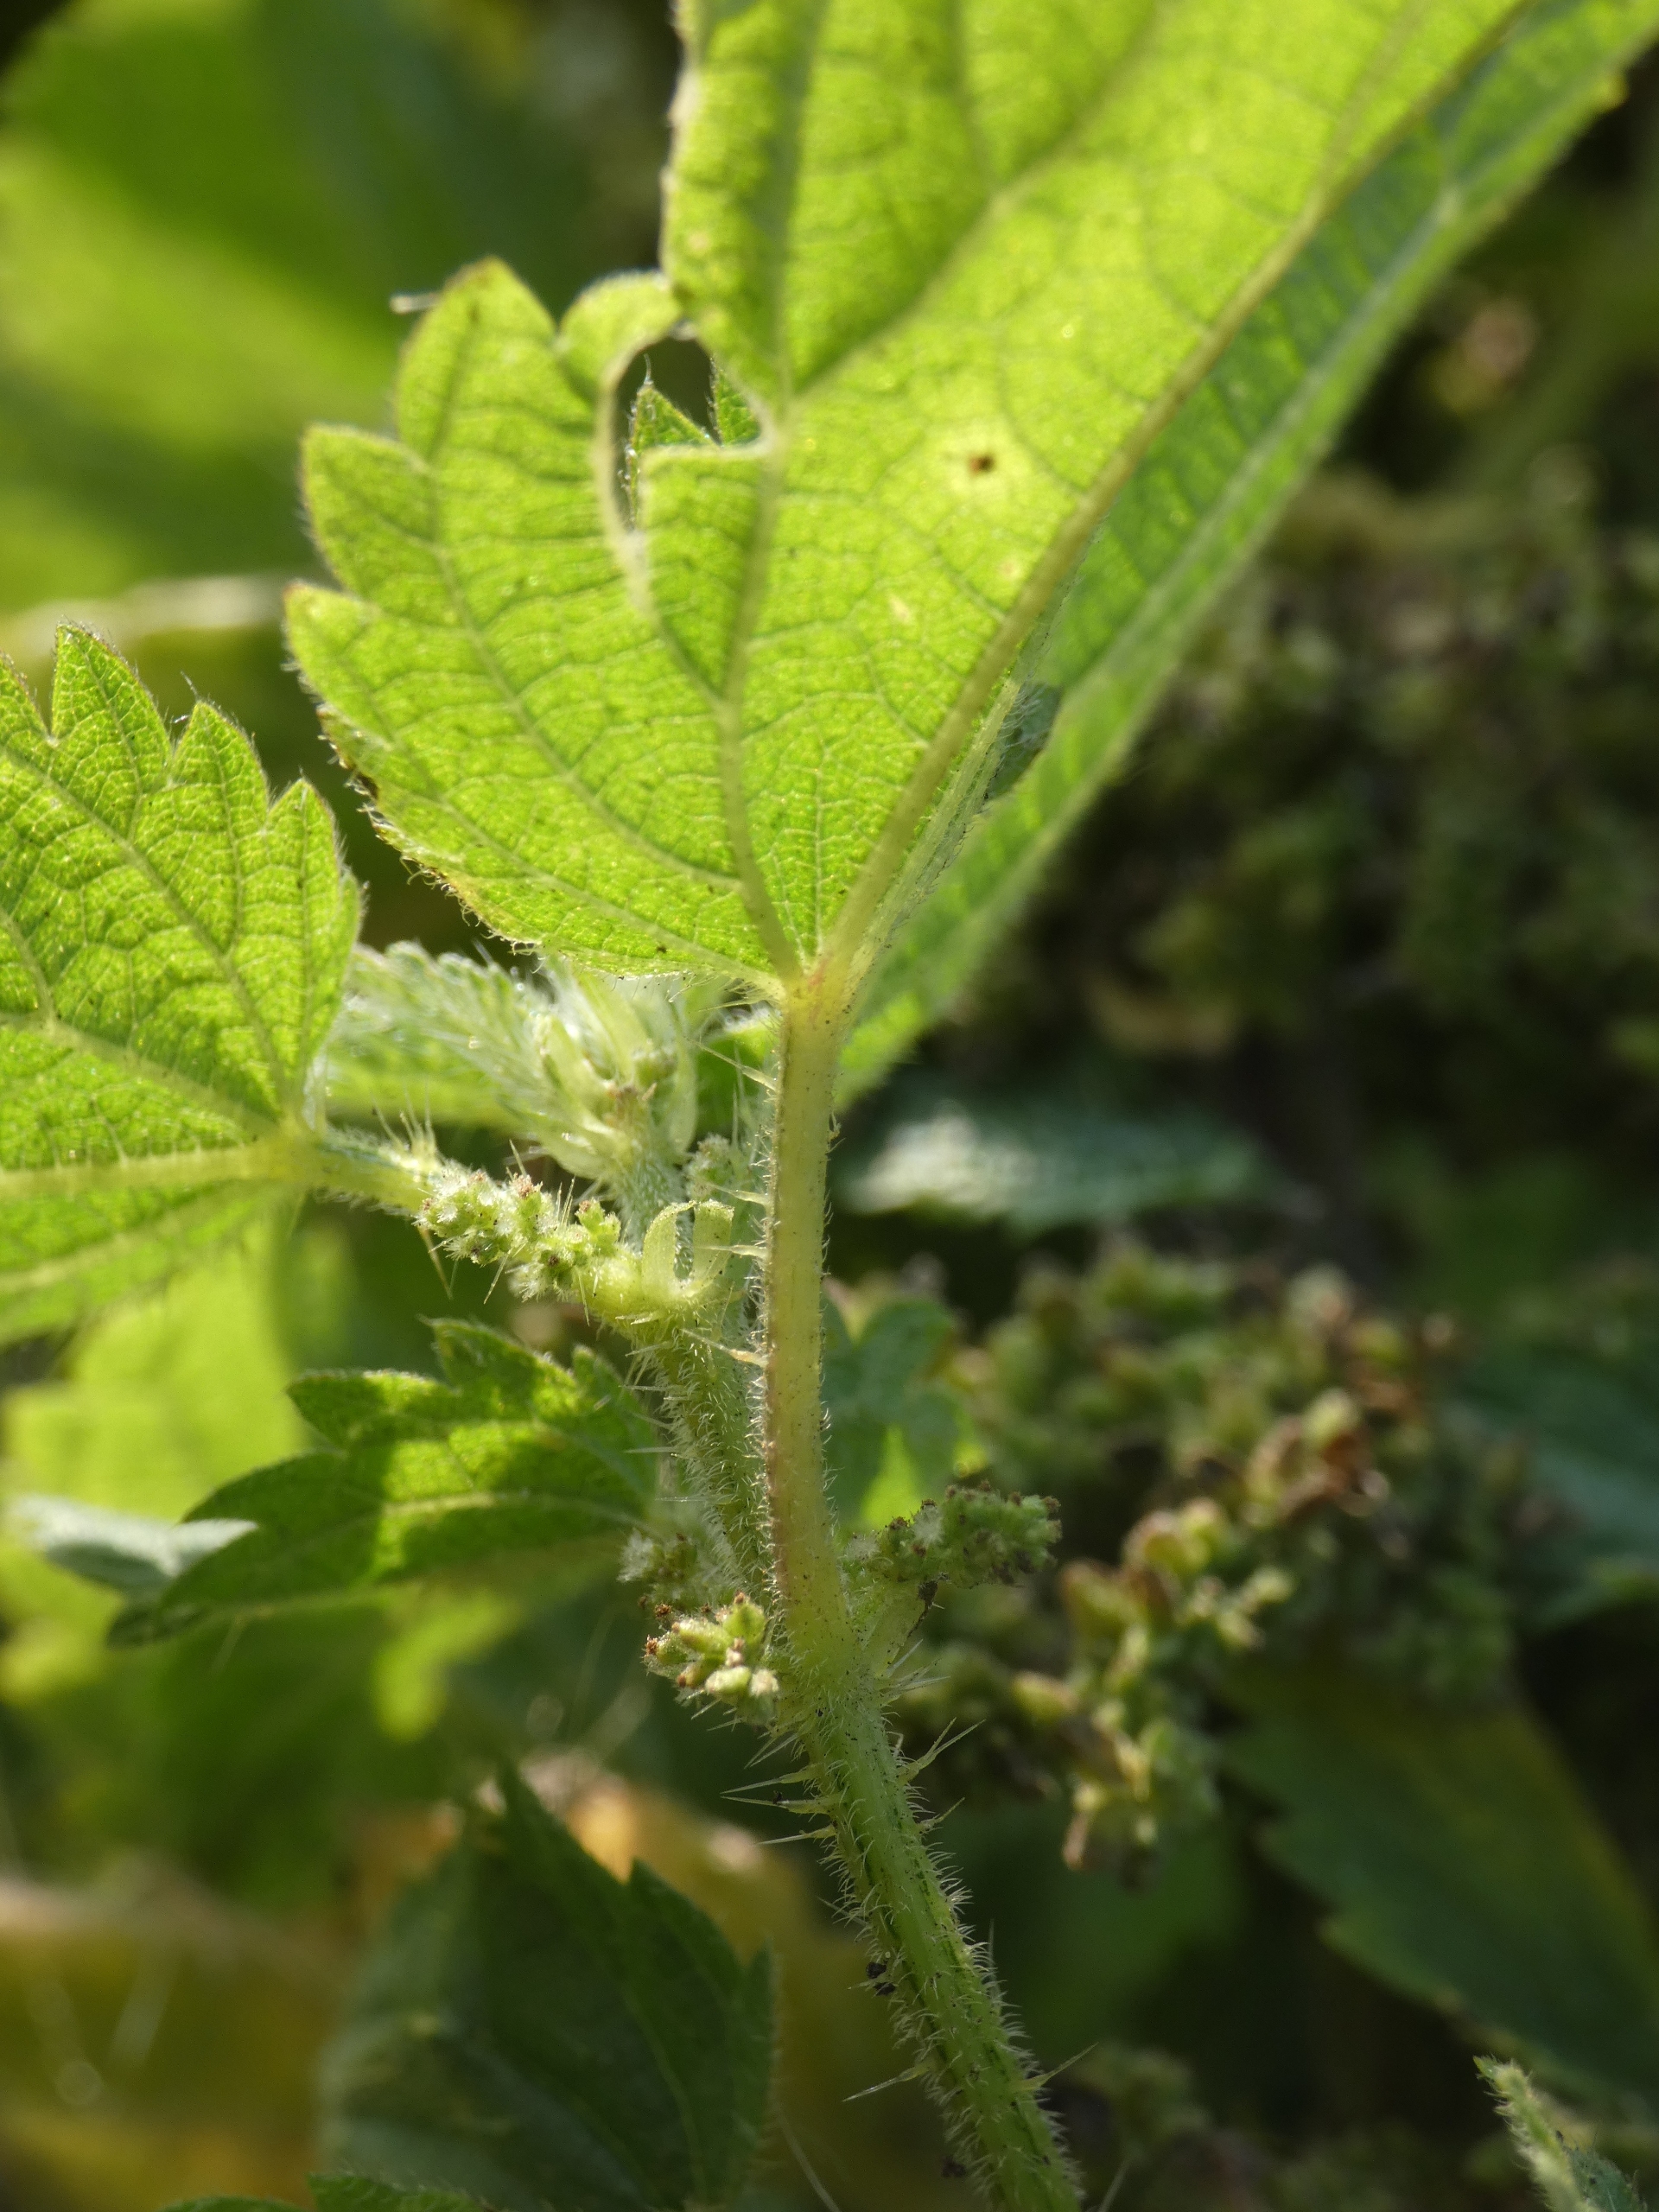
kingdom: Plantae
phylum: Tracheophyta
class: Magnoliopsida
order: Rosales
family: Urticaceae
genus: Urtica
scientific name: Urtica dioica
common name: Stor nælde
